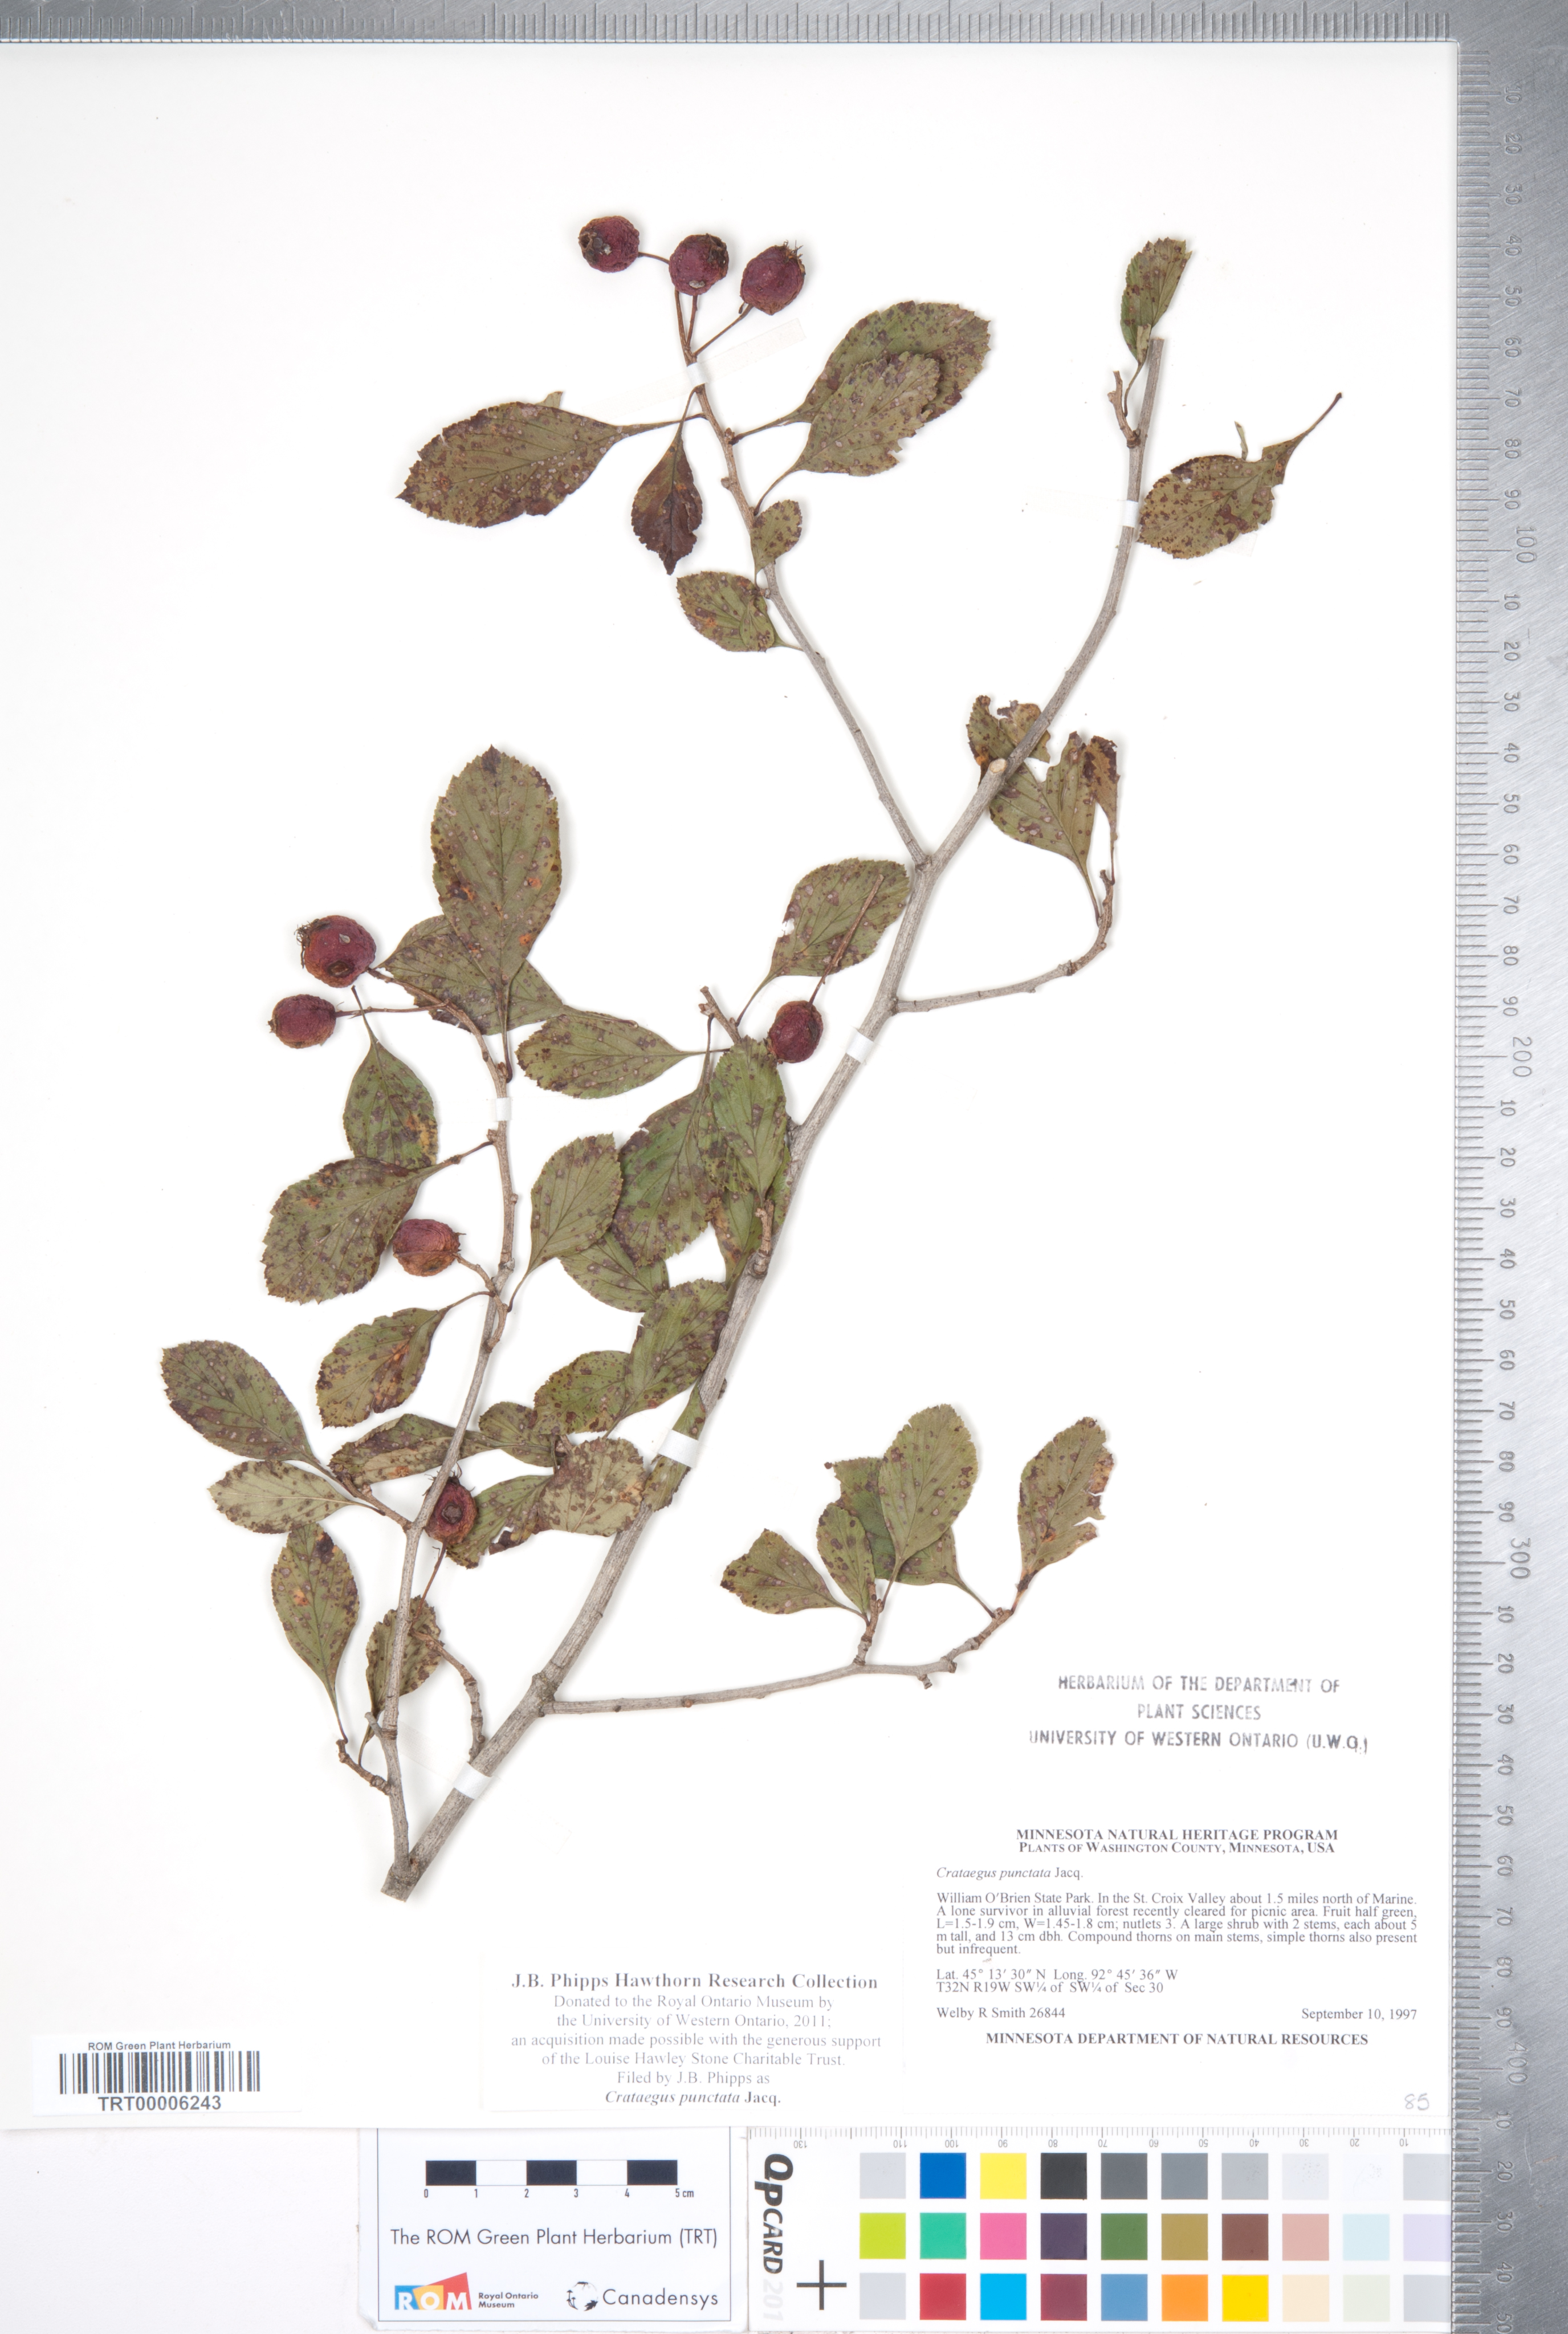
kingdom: Plantae
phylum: Tracheophyta
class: Magnoliopsida
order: Rosales
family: Rosaceae
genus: Crataegus
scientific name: Crataegus punctata
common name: Dotted hawthorn
